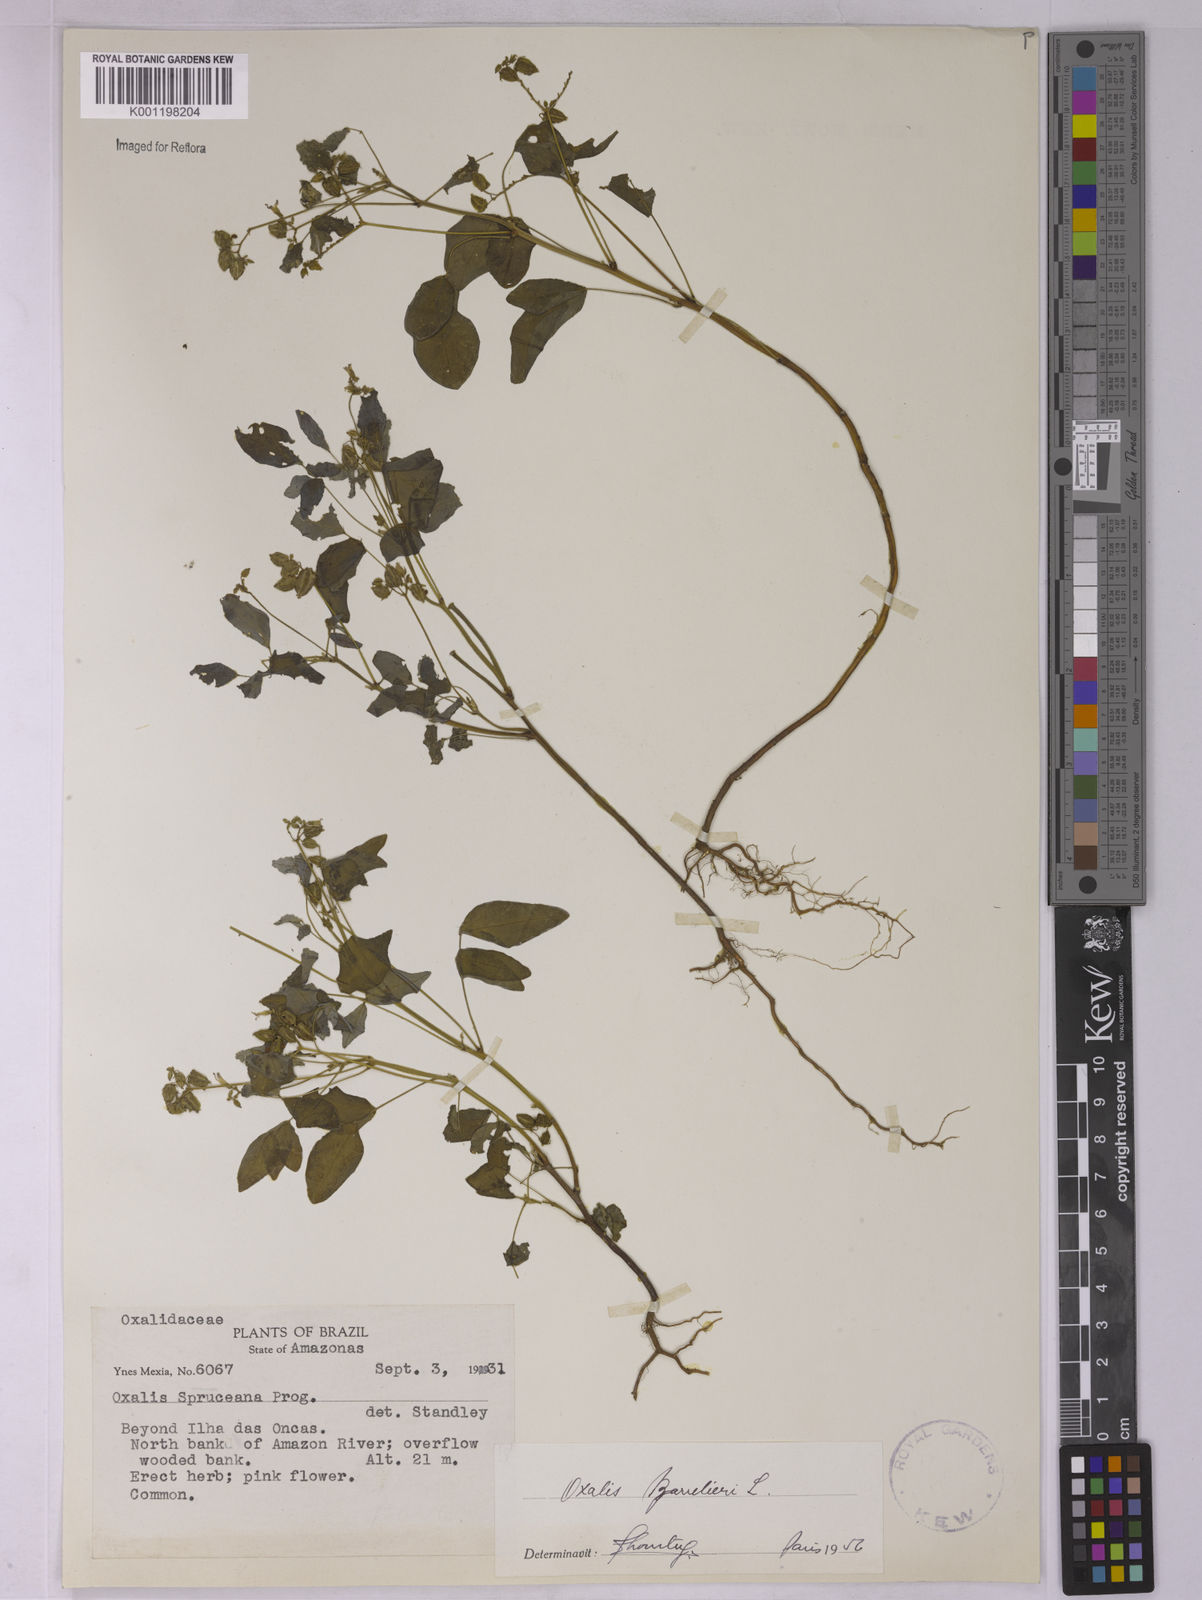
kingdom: Plantae
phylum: Tracheophyta
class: Magnoliopsida
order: Oxalidales
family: Oxalidaceae
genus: Oxalis
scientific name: Oxalis barrelieri
